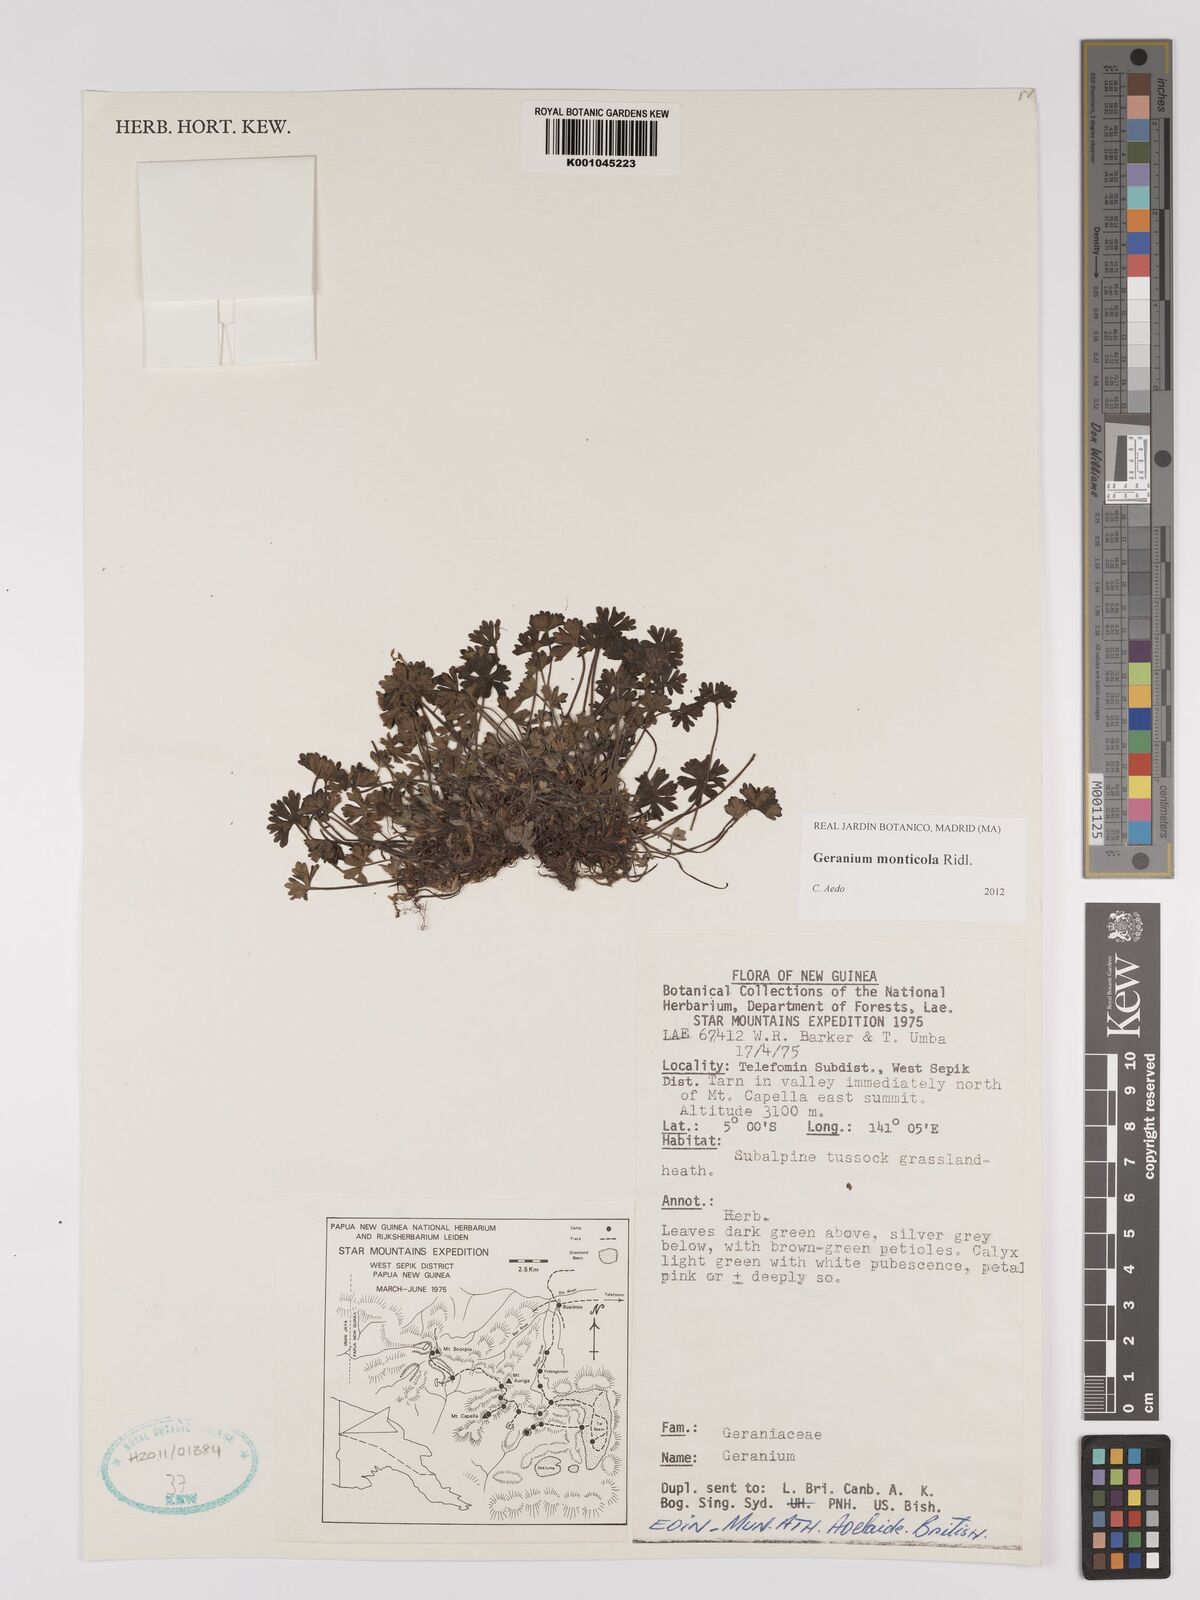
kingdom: Plantae
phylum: Tracheophyta
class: Magnoliopsida
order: Geraniales
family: Geraniaceae
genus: Geranium
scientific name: Geranium monticola
